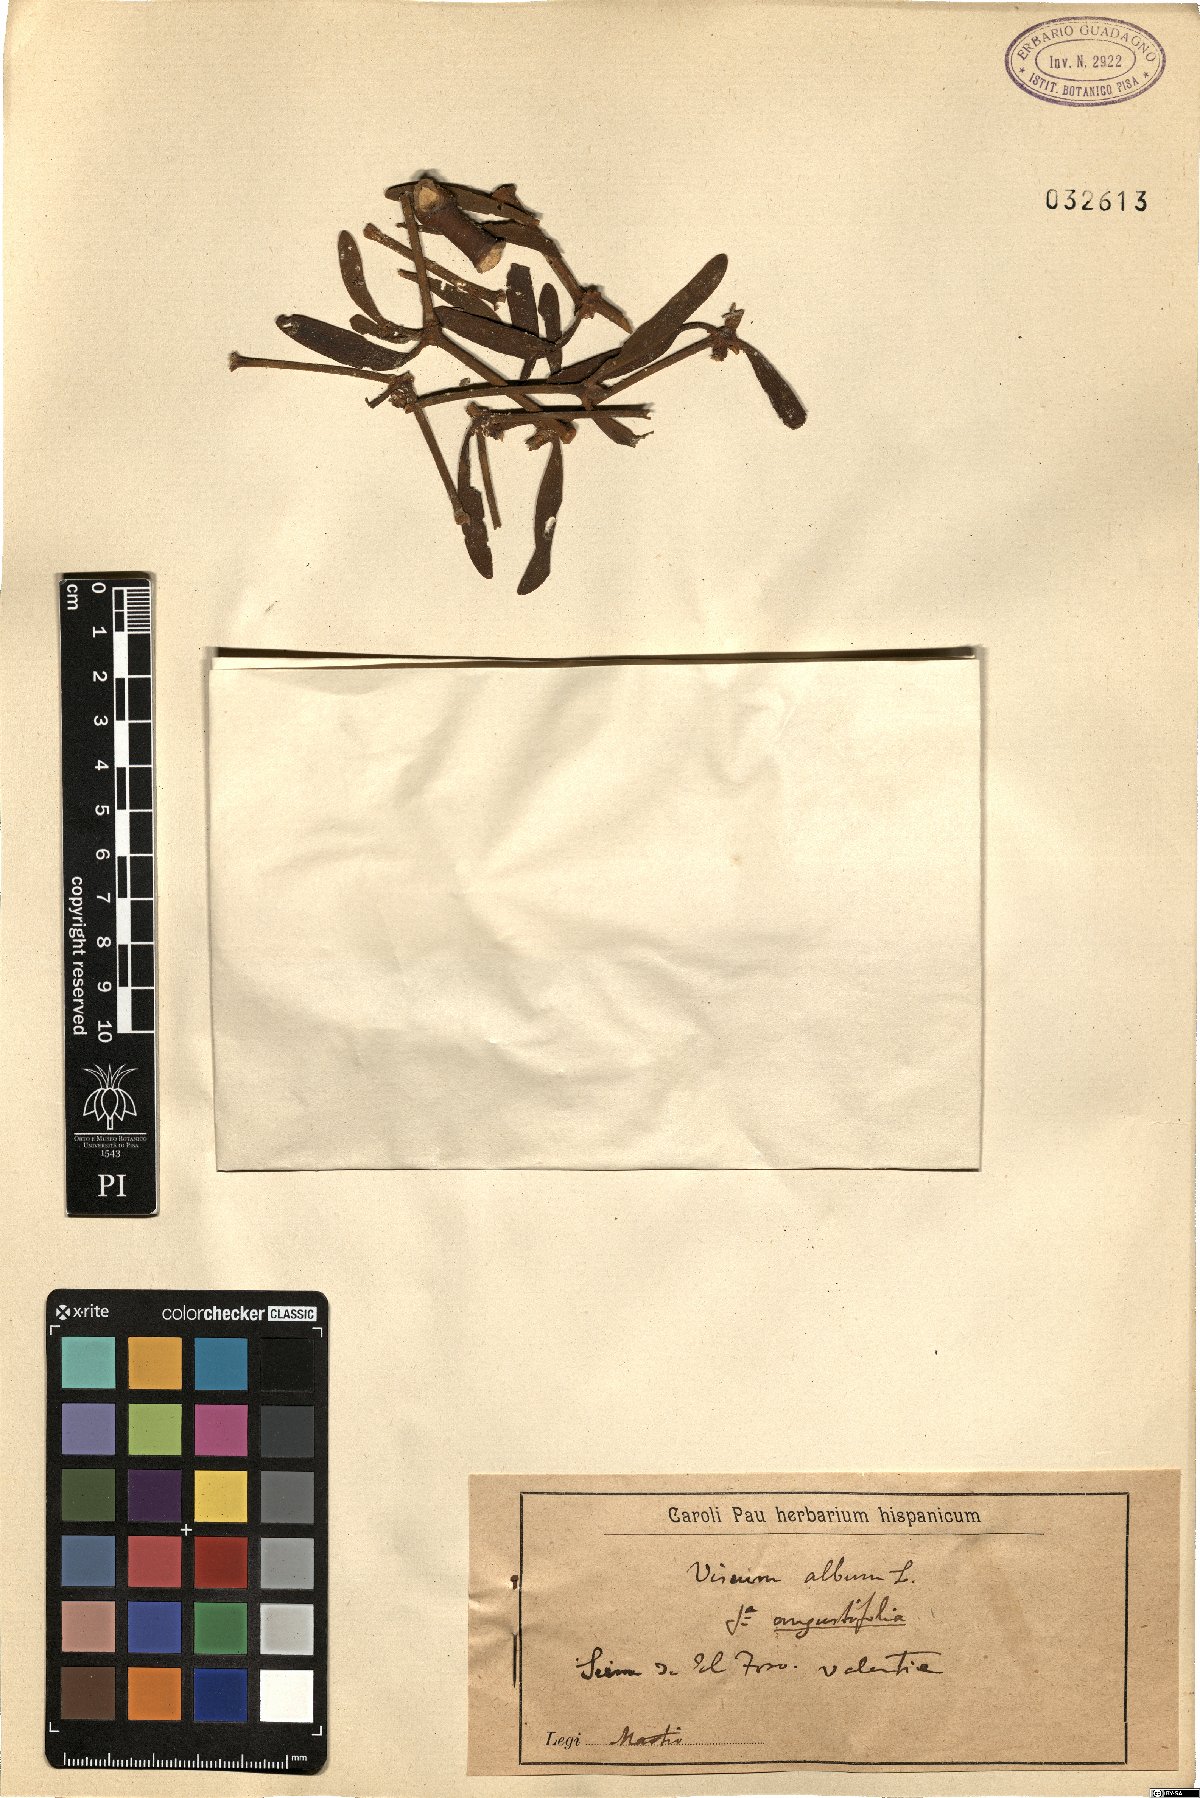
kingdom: Plantae
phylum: Tracheophyta
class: Magnoliopsida
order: Santalales
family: Viscaceae
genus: Viscum
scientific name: Viscum album
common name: Mistletoe
